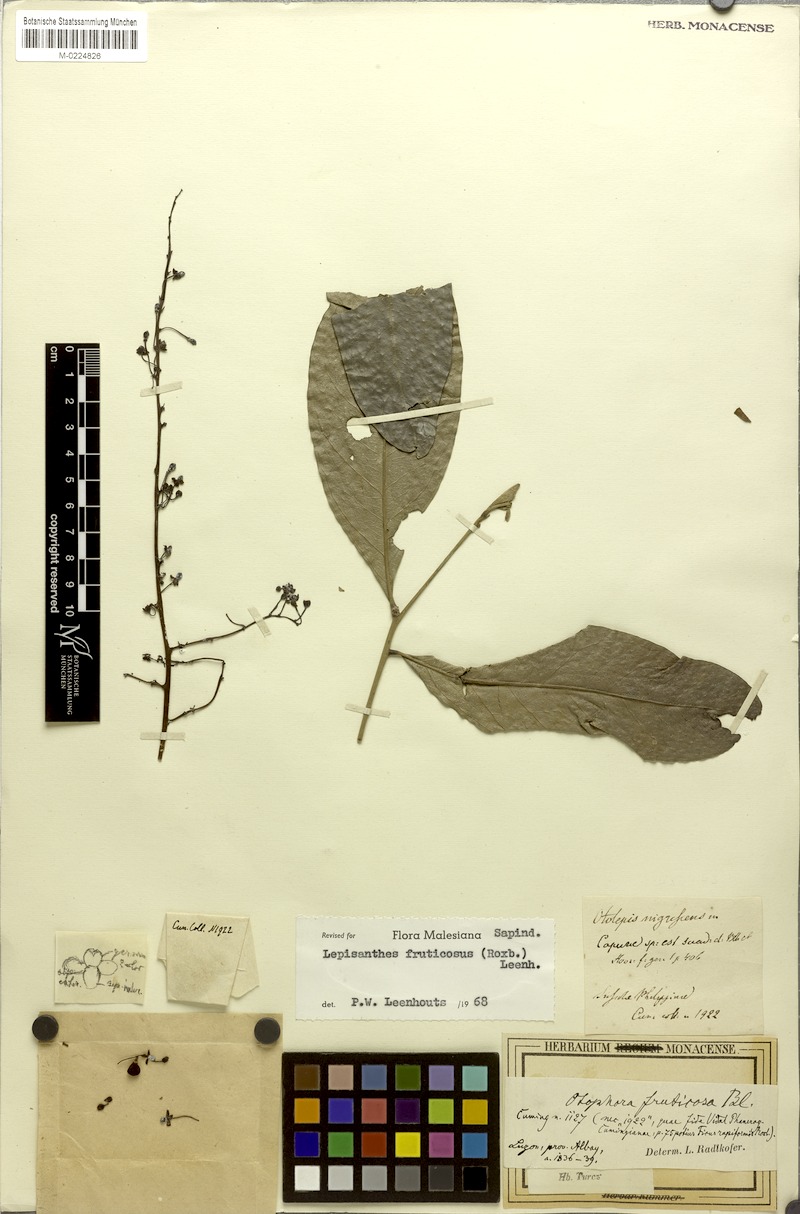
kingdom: Plantae
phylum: Tracheophyta
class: Magnoliopsida
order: Sapindales
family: Sapindaceae
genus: Lepisanthes
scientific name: Lepisanthes fruticosa
